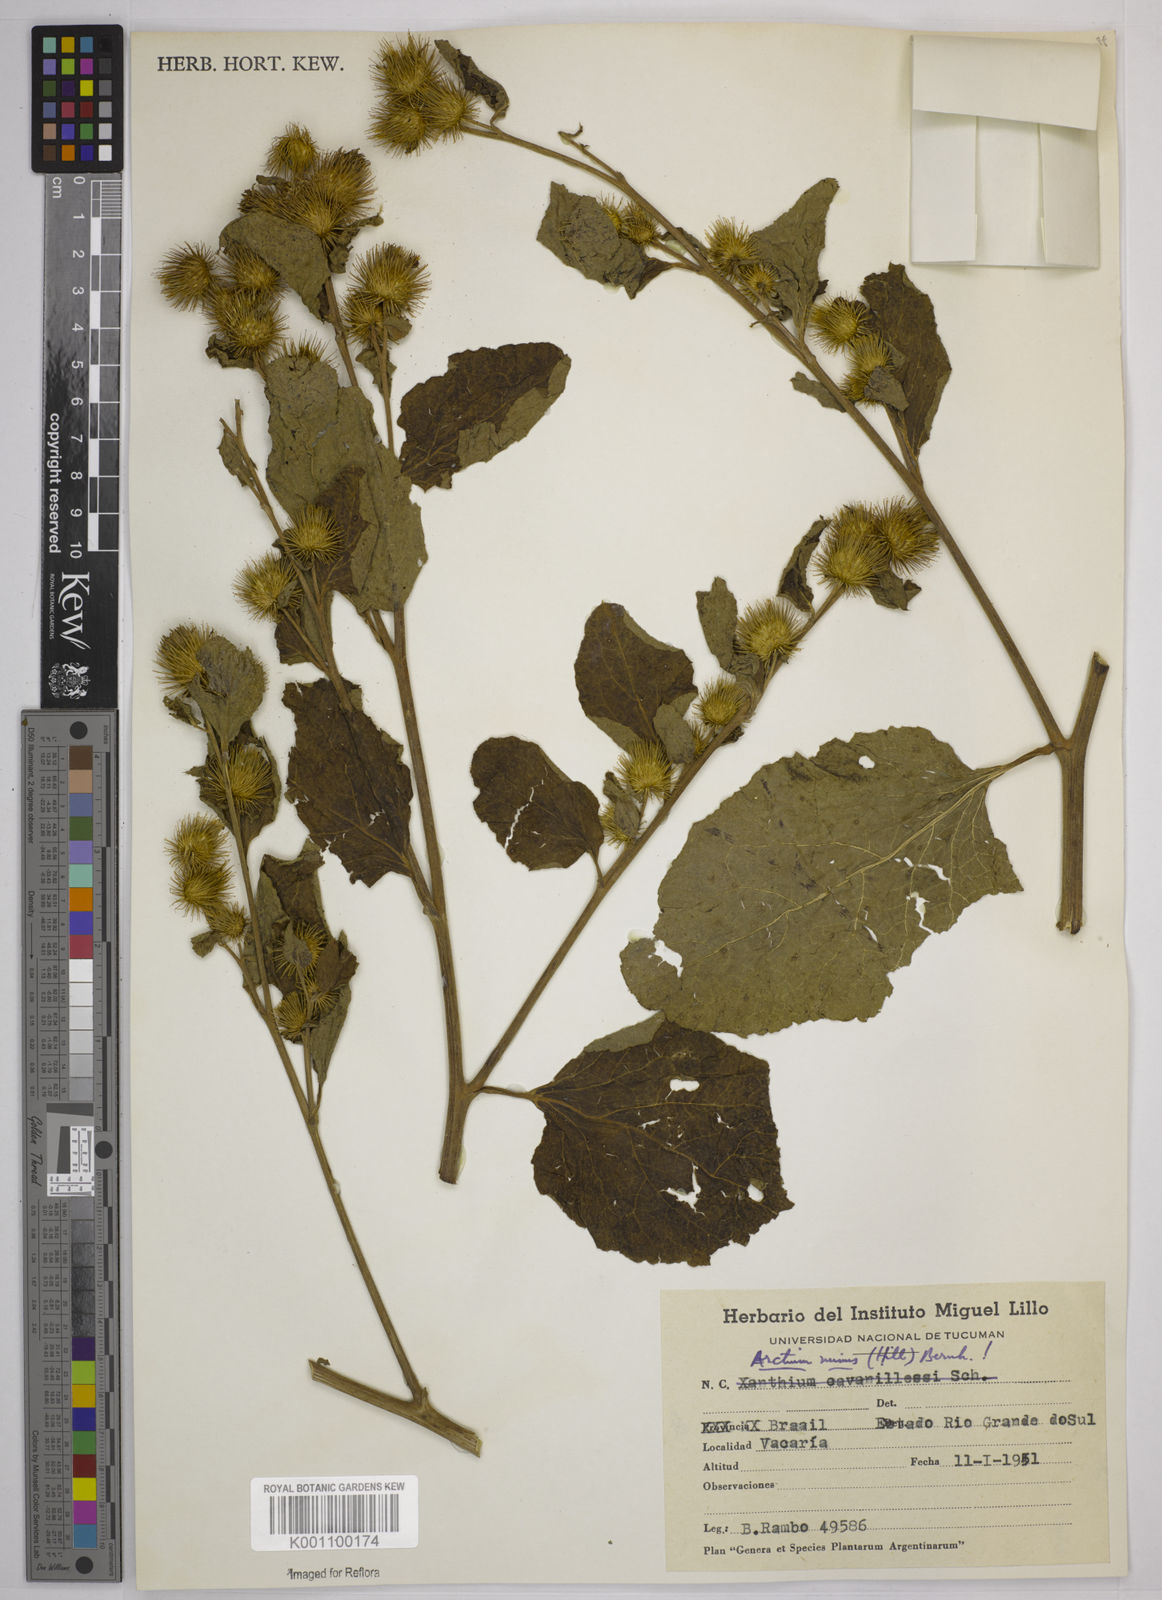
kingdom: Plantae
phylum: Tracheophyta
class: Magnoliopsida
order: Asterales
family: Asteraceae
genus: Arctium
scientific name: Arctium minus
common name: Lesser burdock
